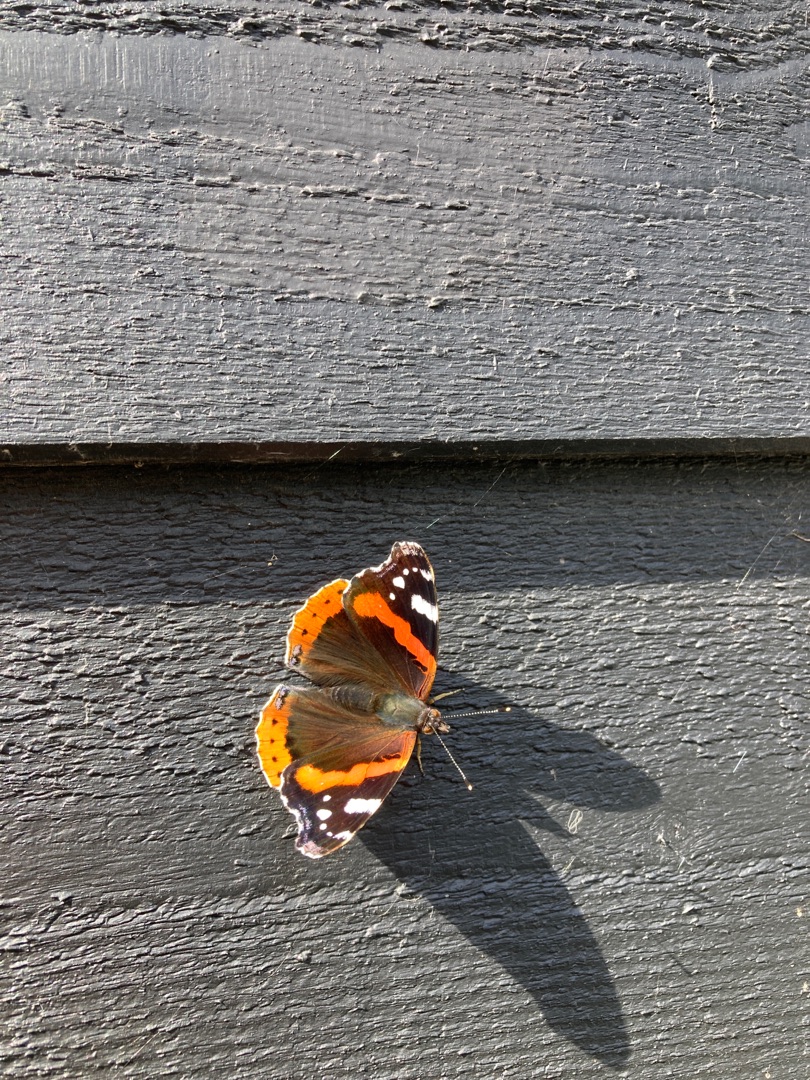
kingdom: Animalia
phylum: Arthropoda
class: Insecta
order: Lepidoptera
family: Nymphalidae
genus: Vanessa
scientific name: Vanessa atalanta
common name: Admiral
